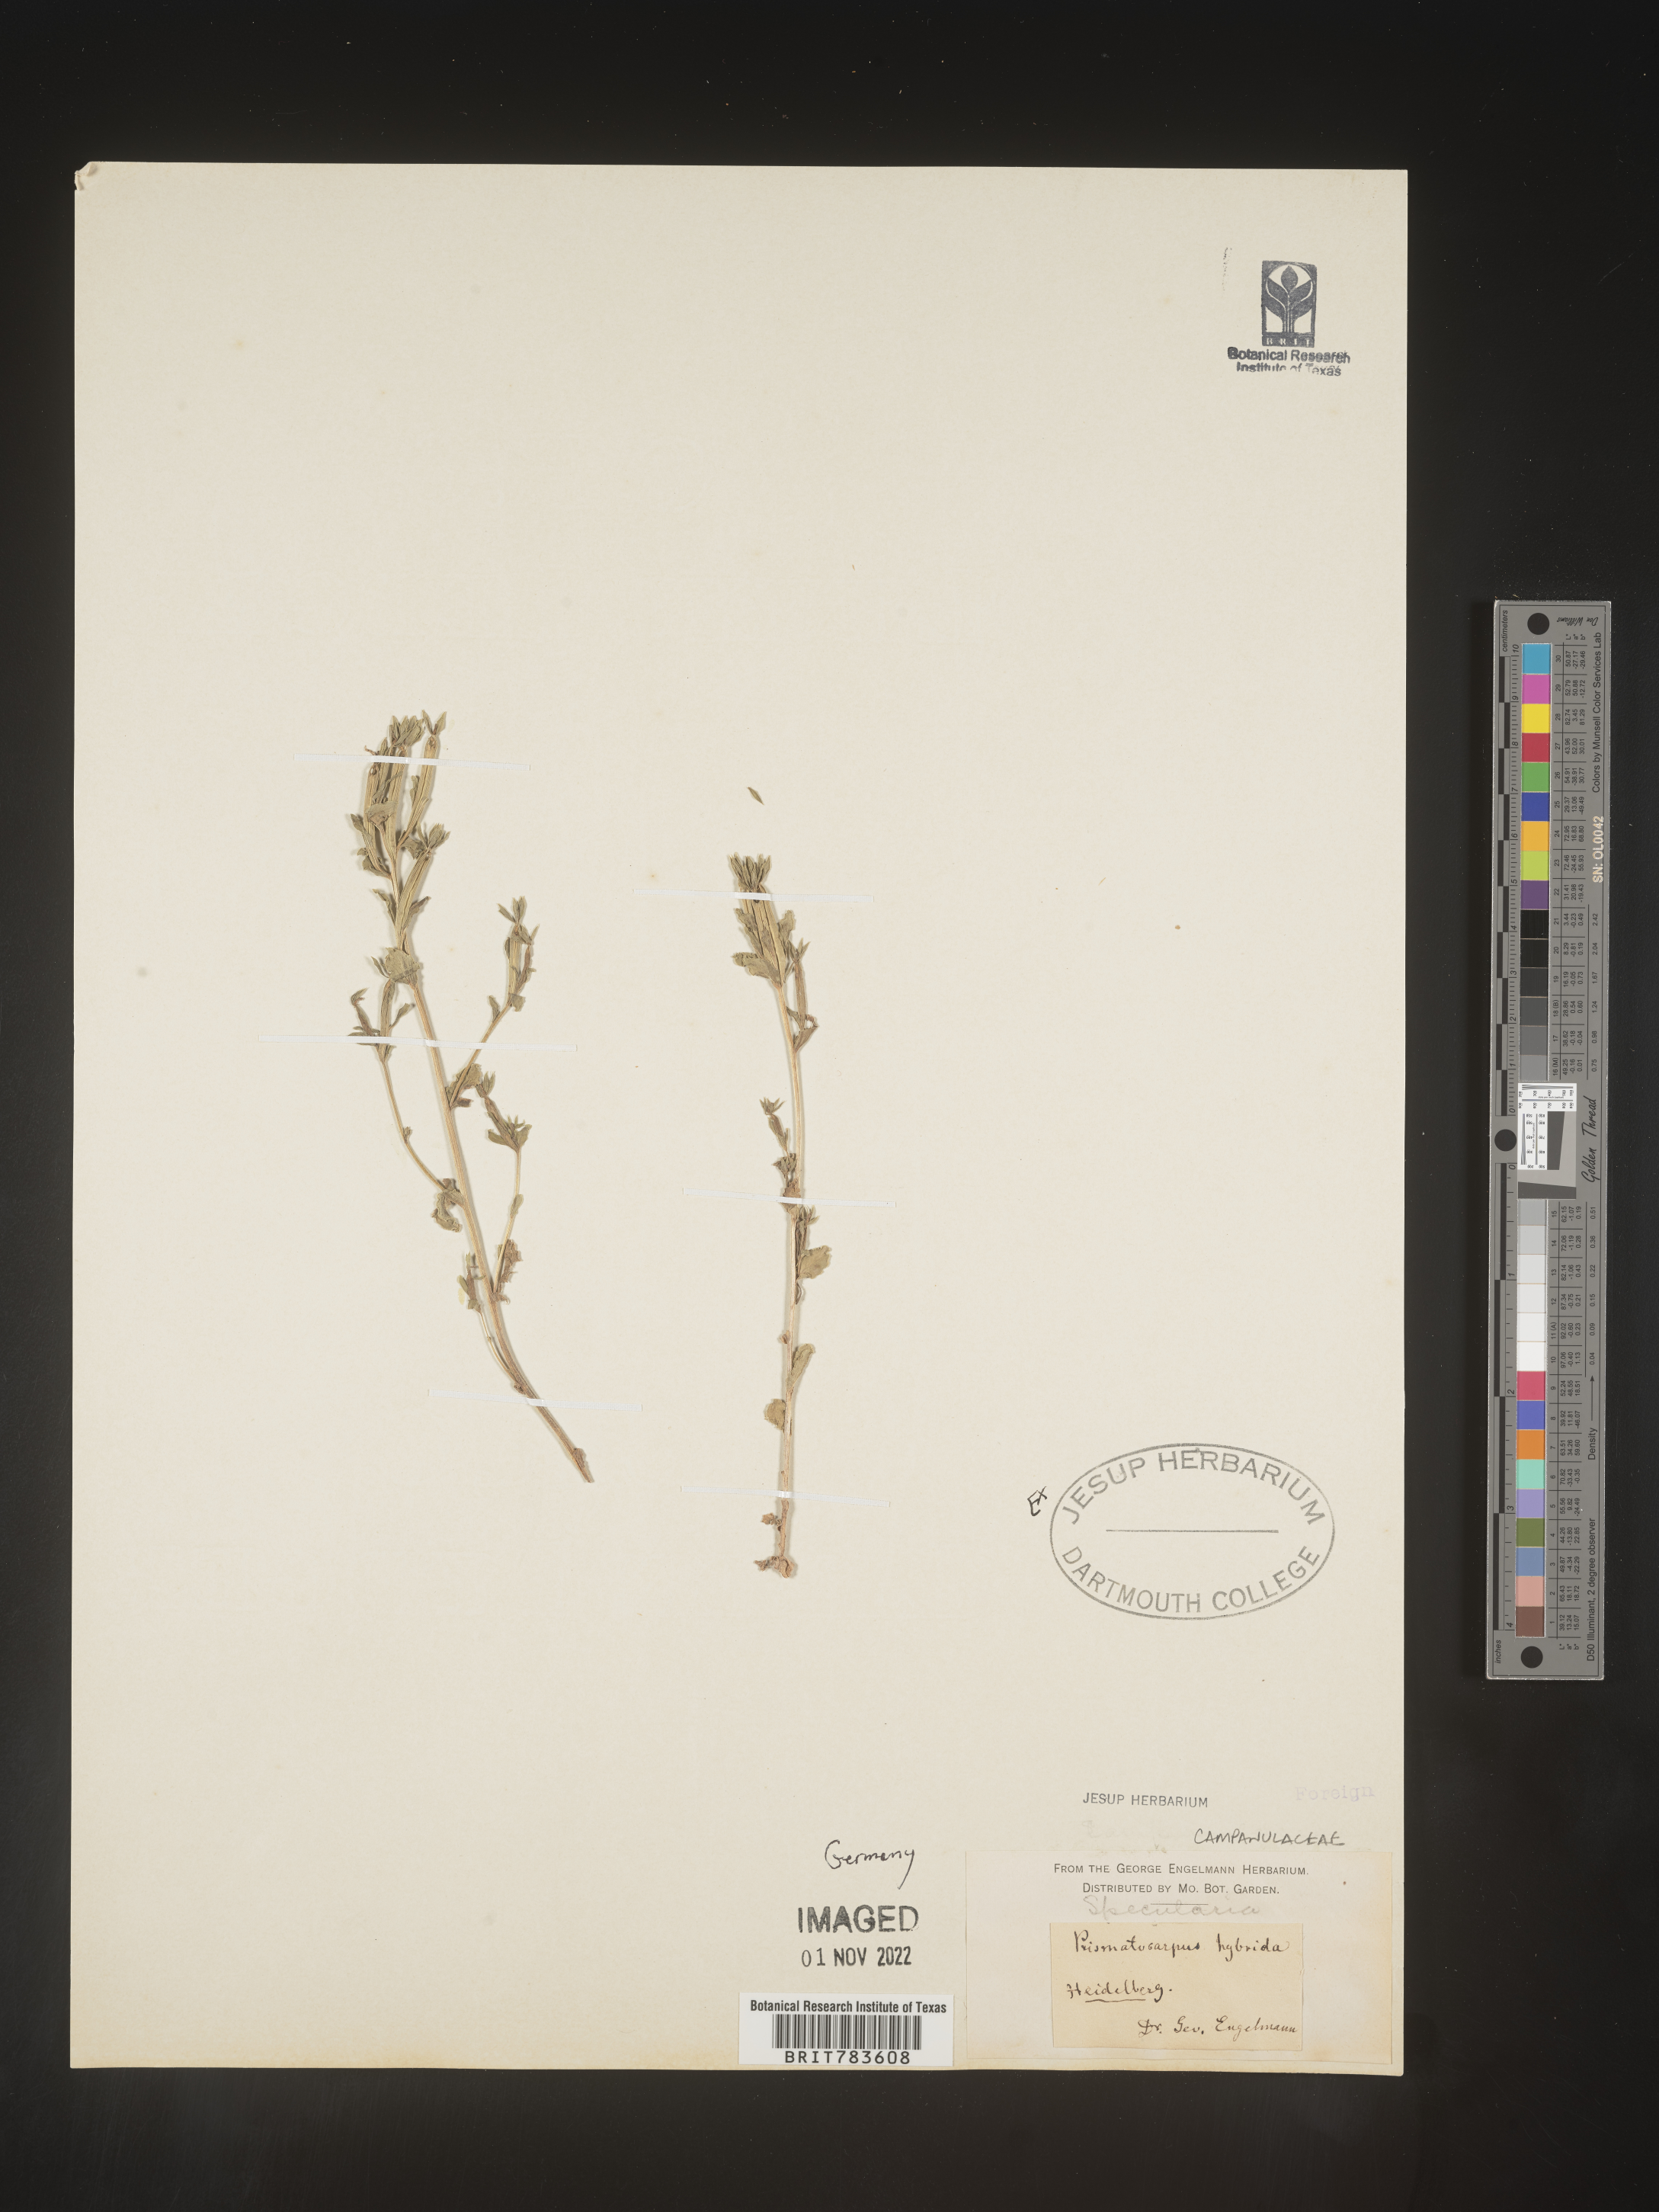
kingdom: Plantae
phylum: Tracheophyta
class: Magnoliopsida
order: Asterales
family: Campanulaceae
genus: Specularia
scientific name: Specularia
